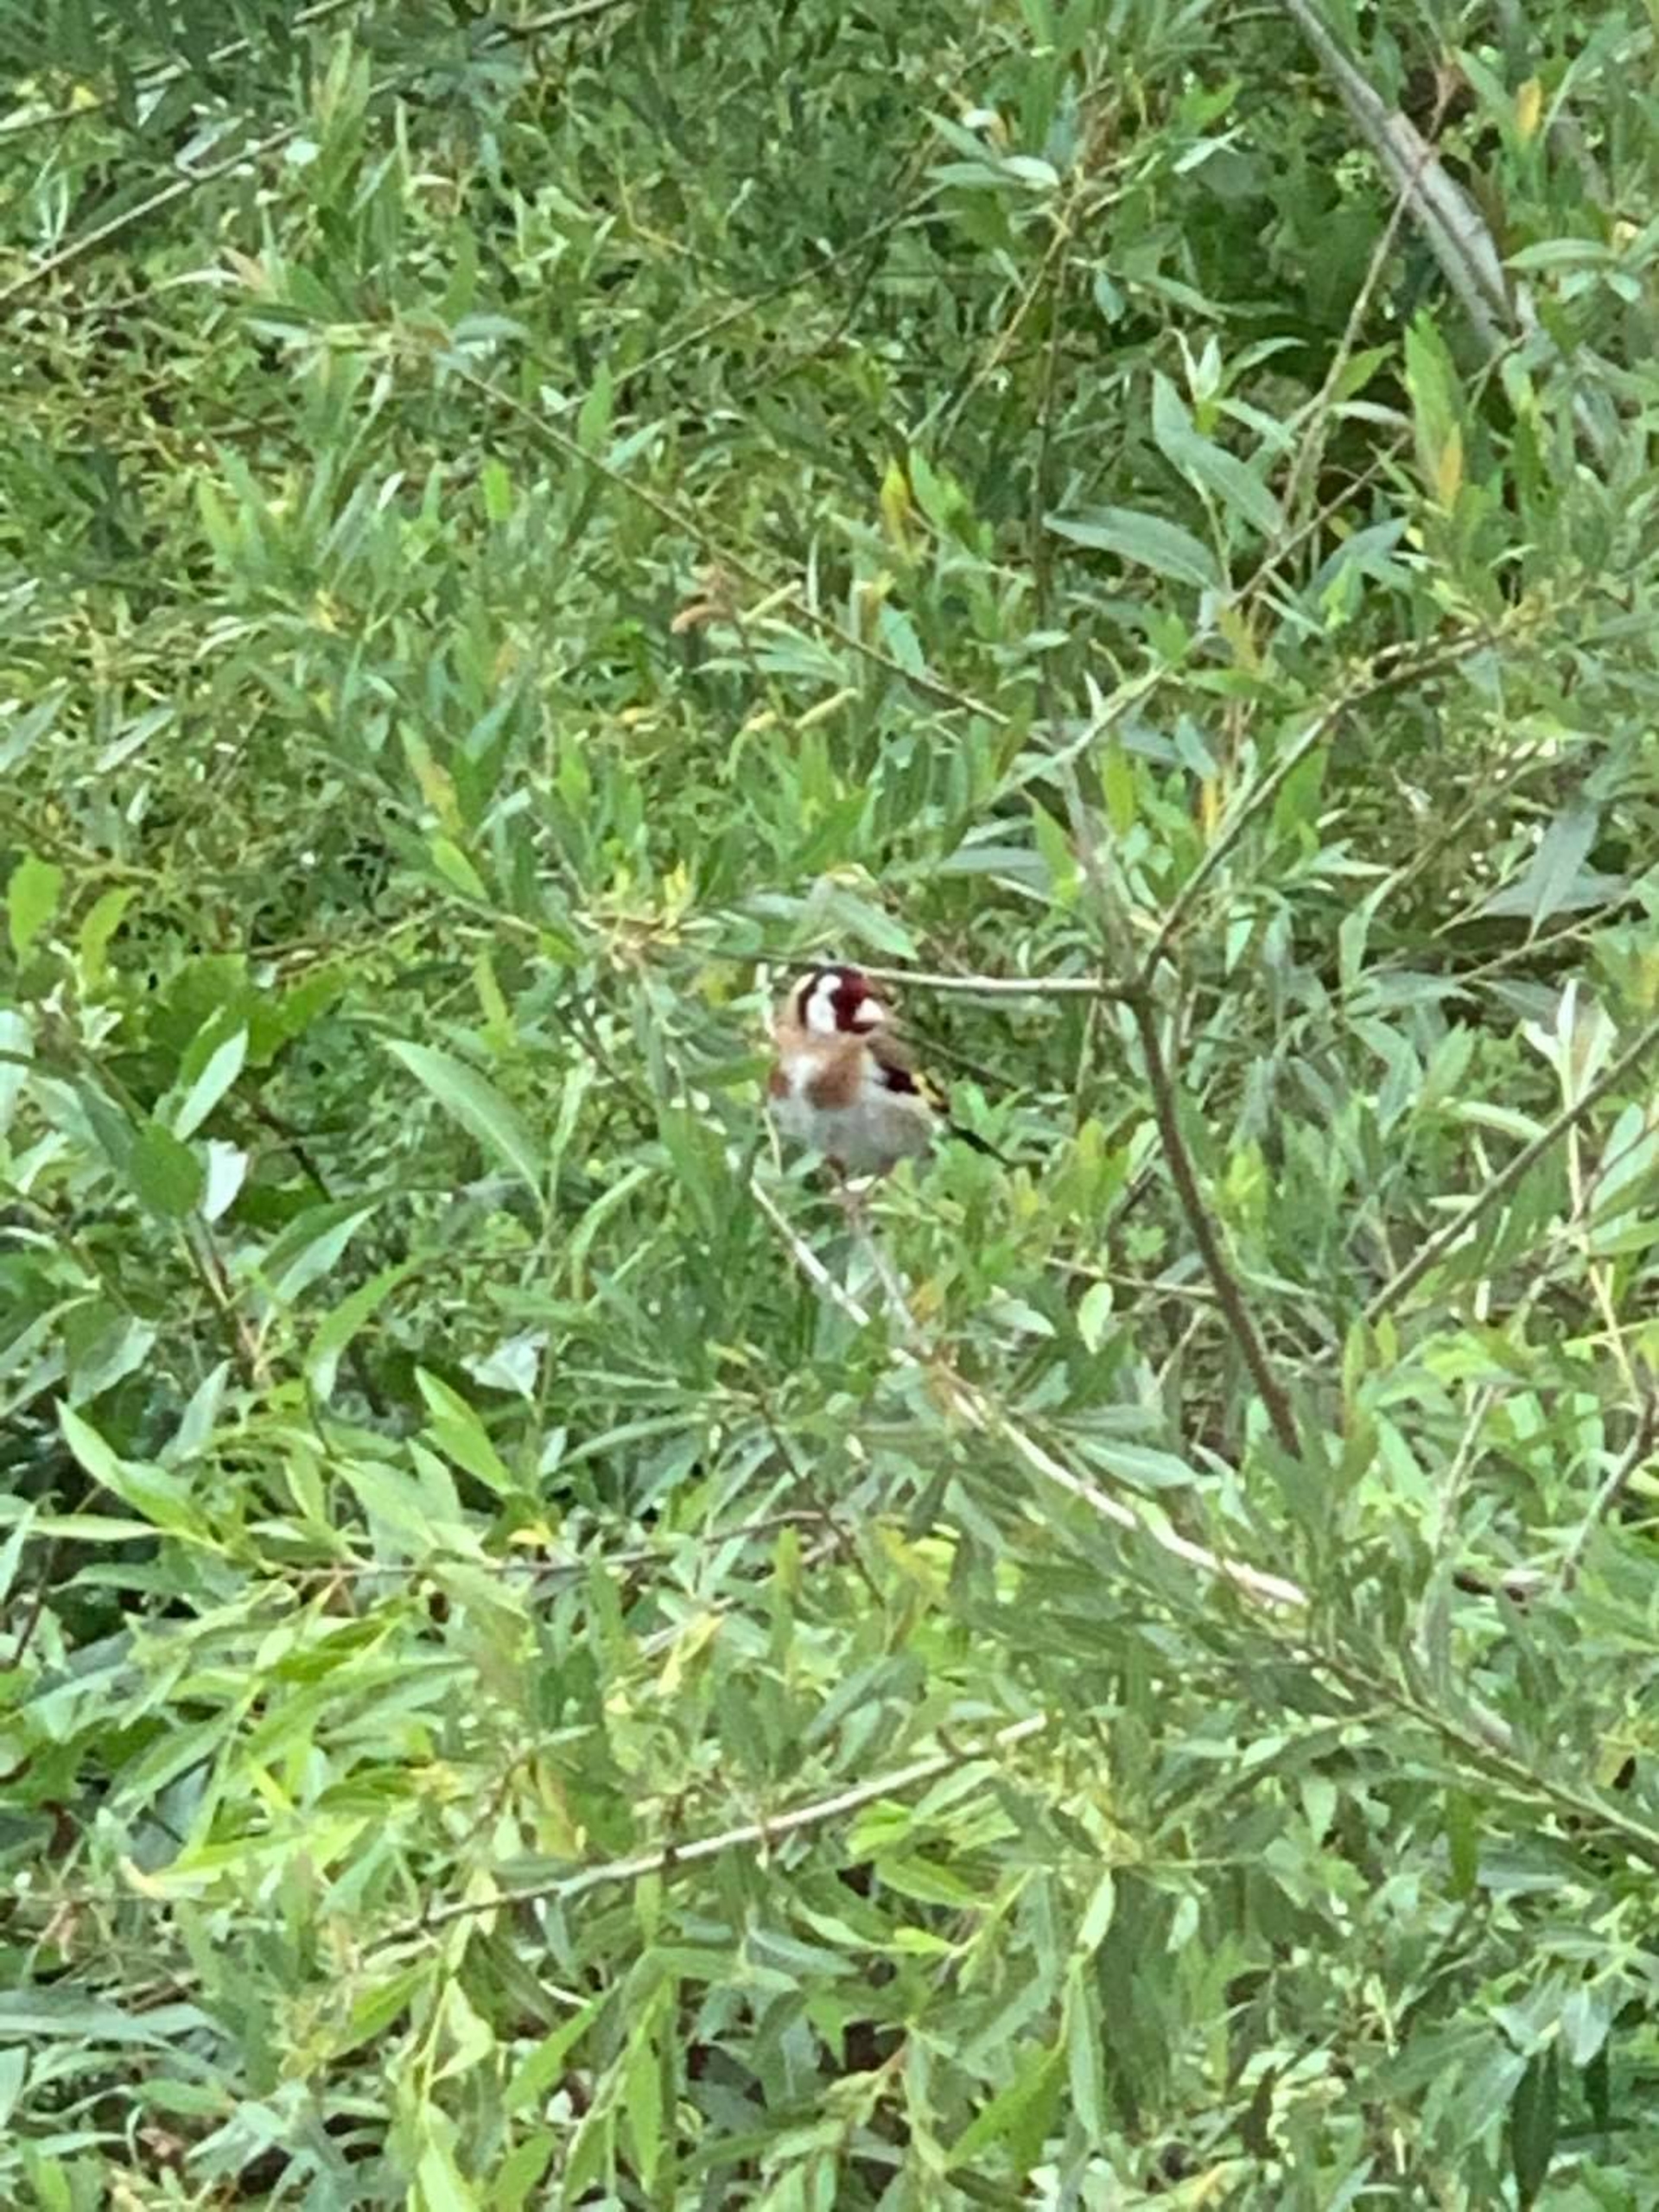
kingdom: Animalia
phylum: Chordata
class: Aves
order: Passeriformes
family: Fringillidae
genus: Carduelis
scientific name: Carduelis carduelis
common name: Stillits
